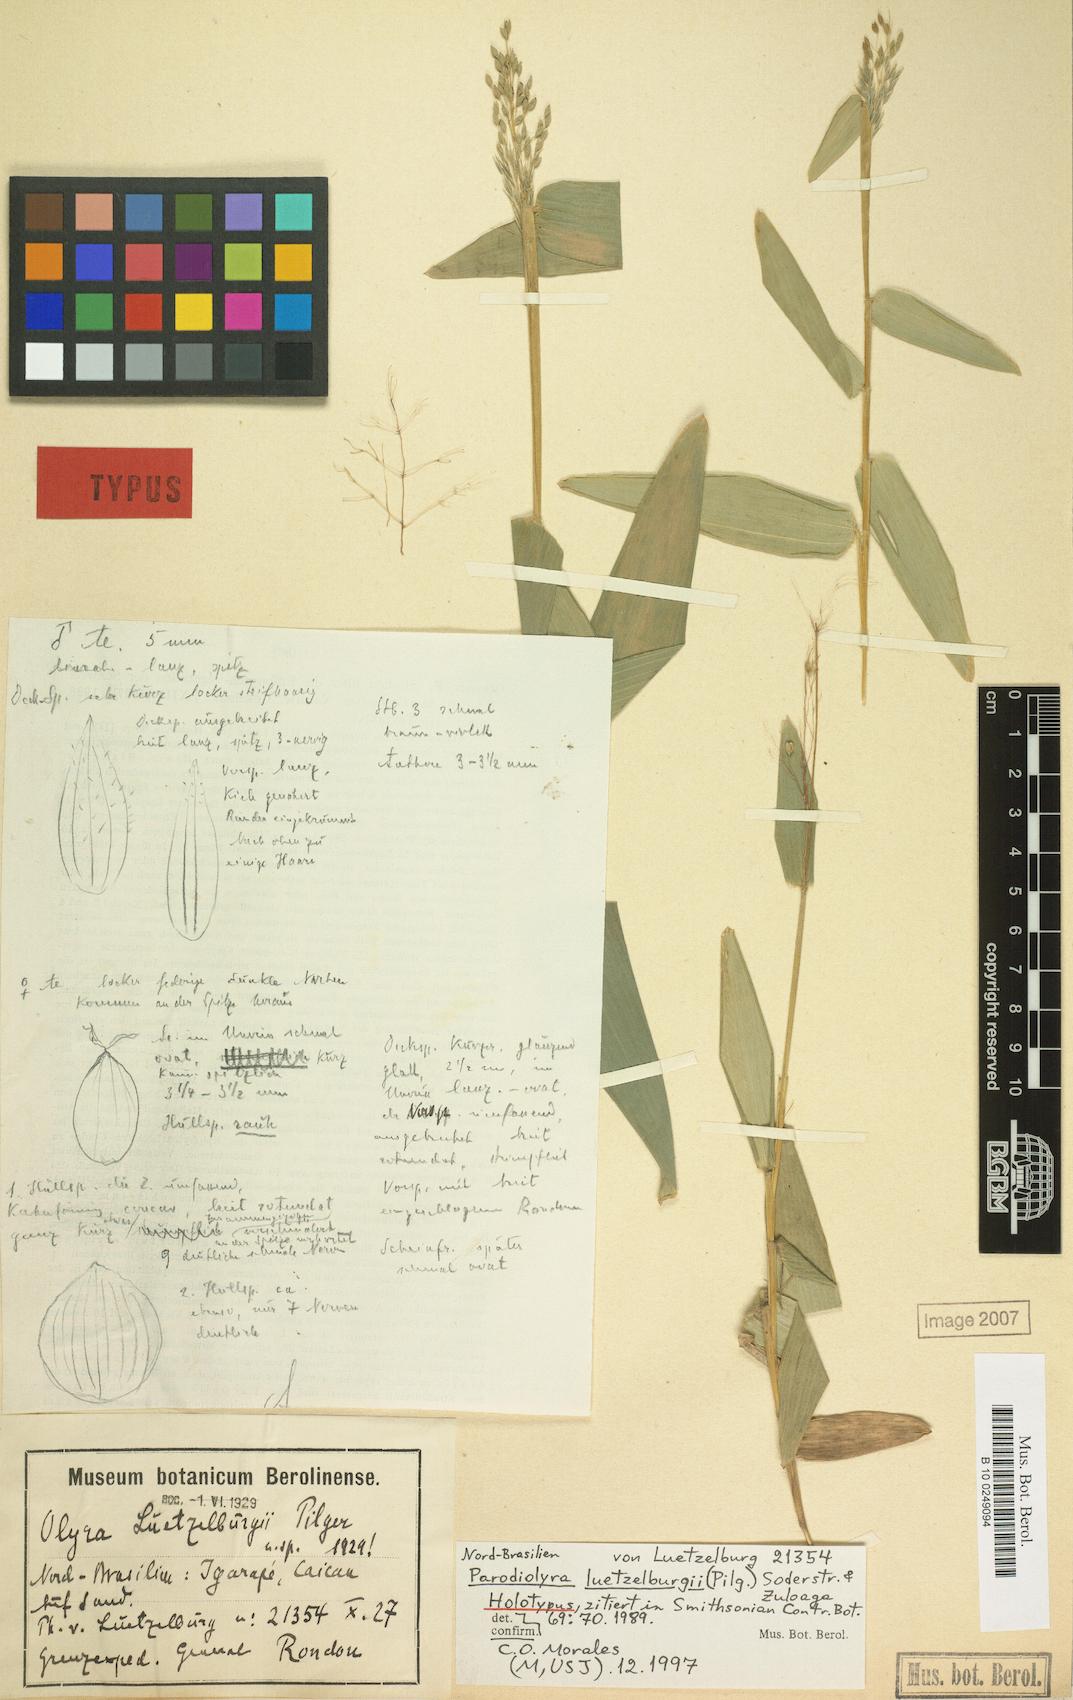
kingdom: Plantae
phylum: Tracheophyta
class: Liliopsida
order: Poales
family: Poaceae
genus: Parodiolyra
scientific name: Parodiolyra luetzelburgii
